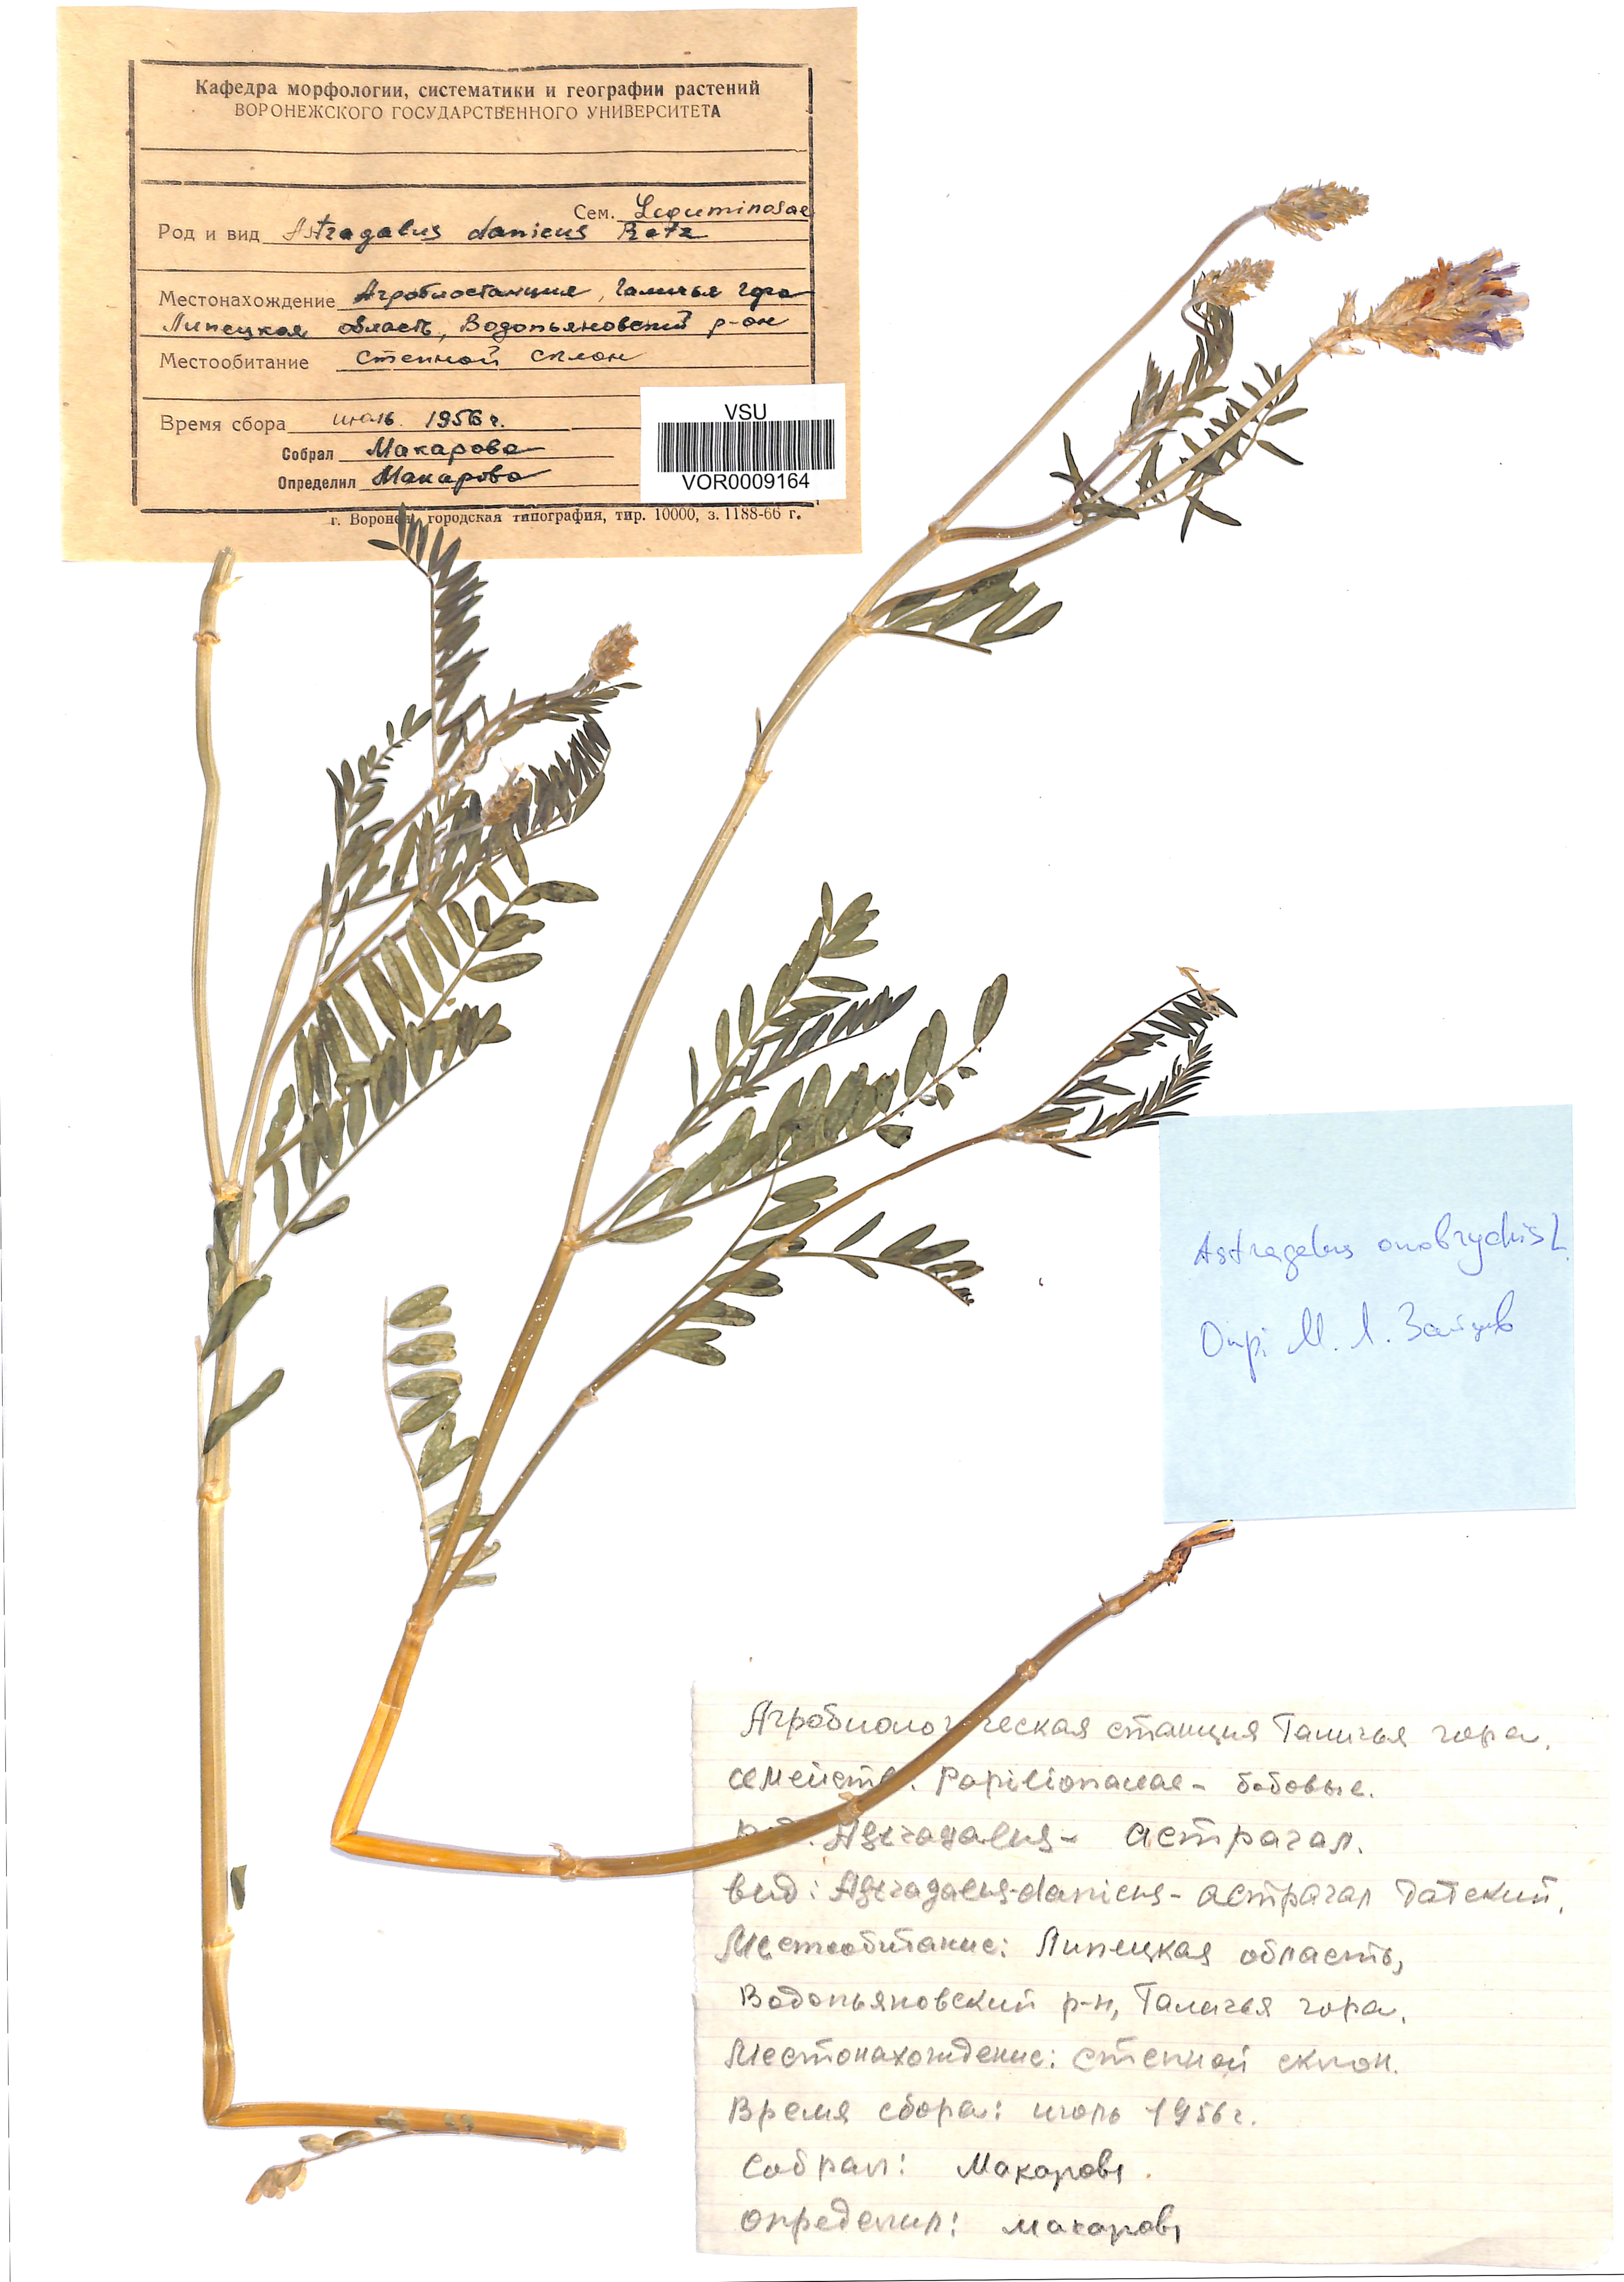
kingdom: Plantae
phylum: Tracheophyta
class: Magnoliopsida
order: Fabales
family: Fabaceae
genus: Astragalus
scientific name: Astragalus onobrychis
